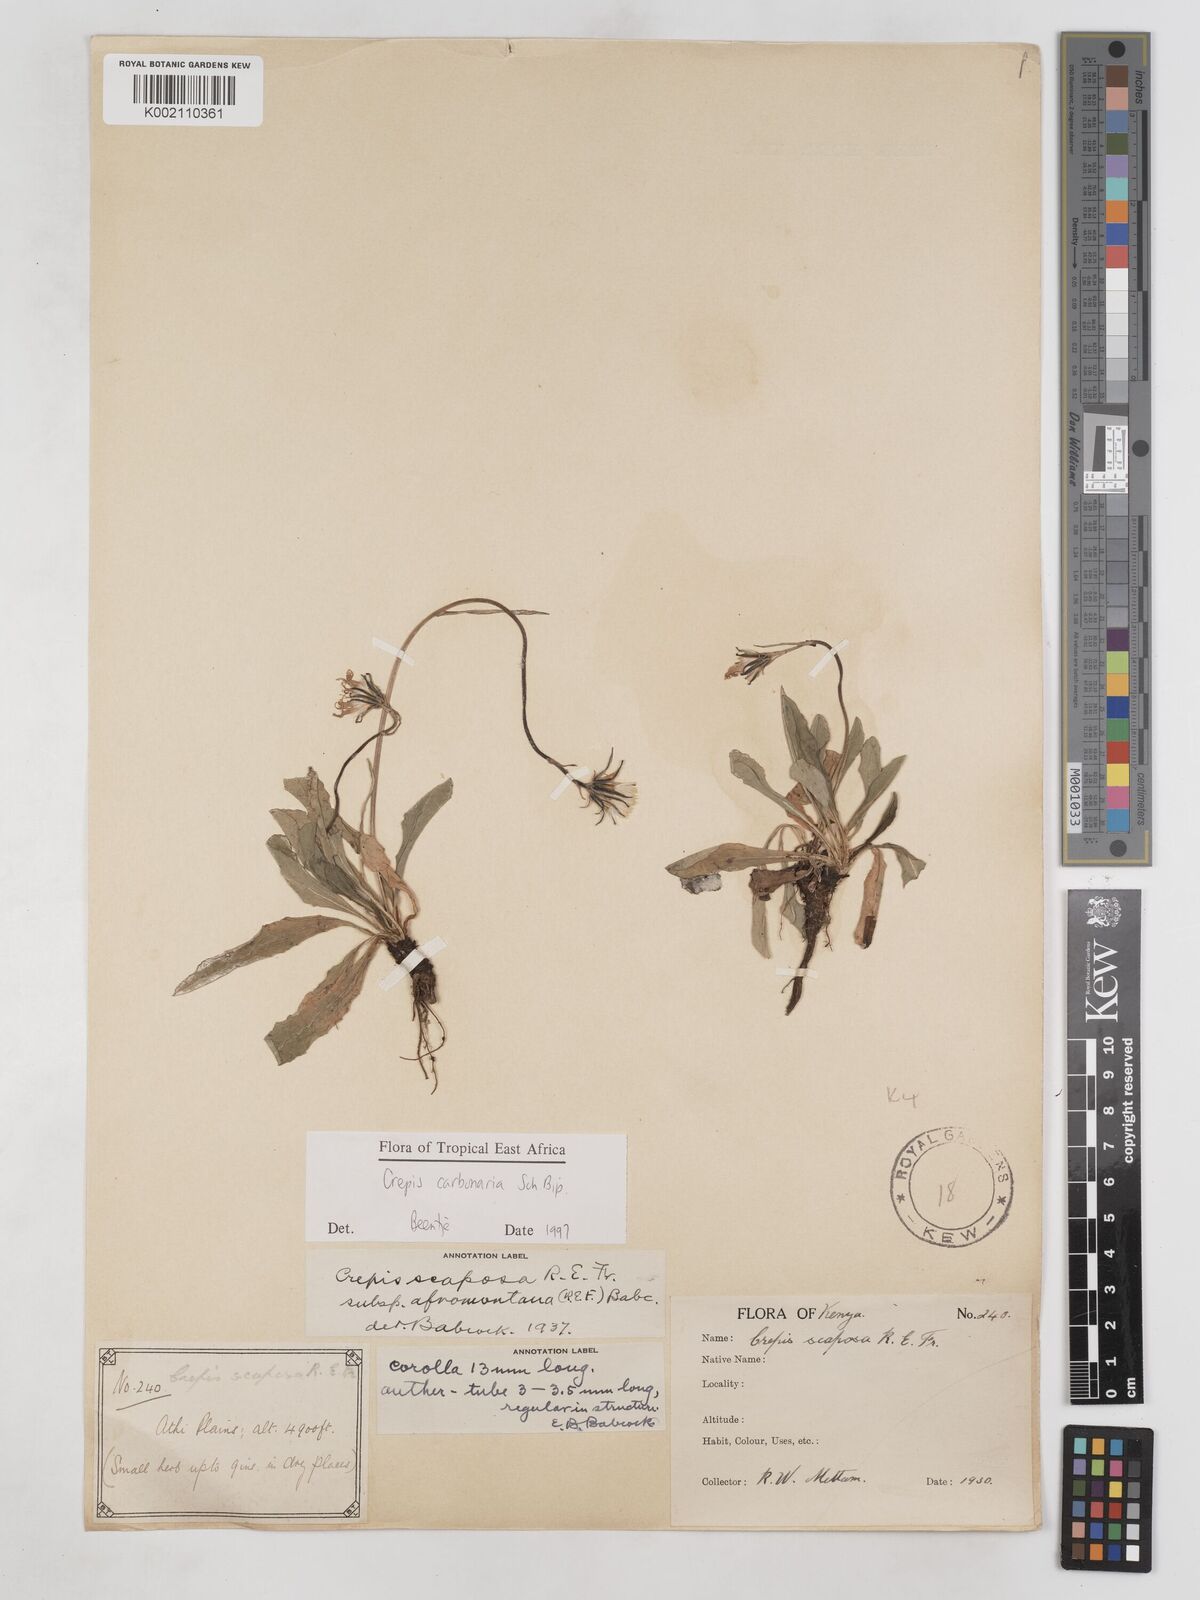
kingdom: Plantae
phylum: Tracheophyta
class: Magnoliopsida
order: Asterales
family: Asteraceae
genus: Crepis
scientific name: Crepis carbonaria
